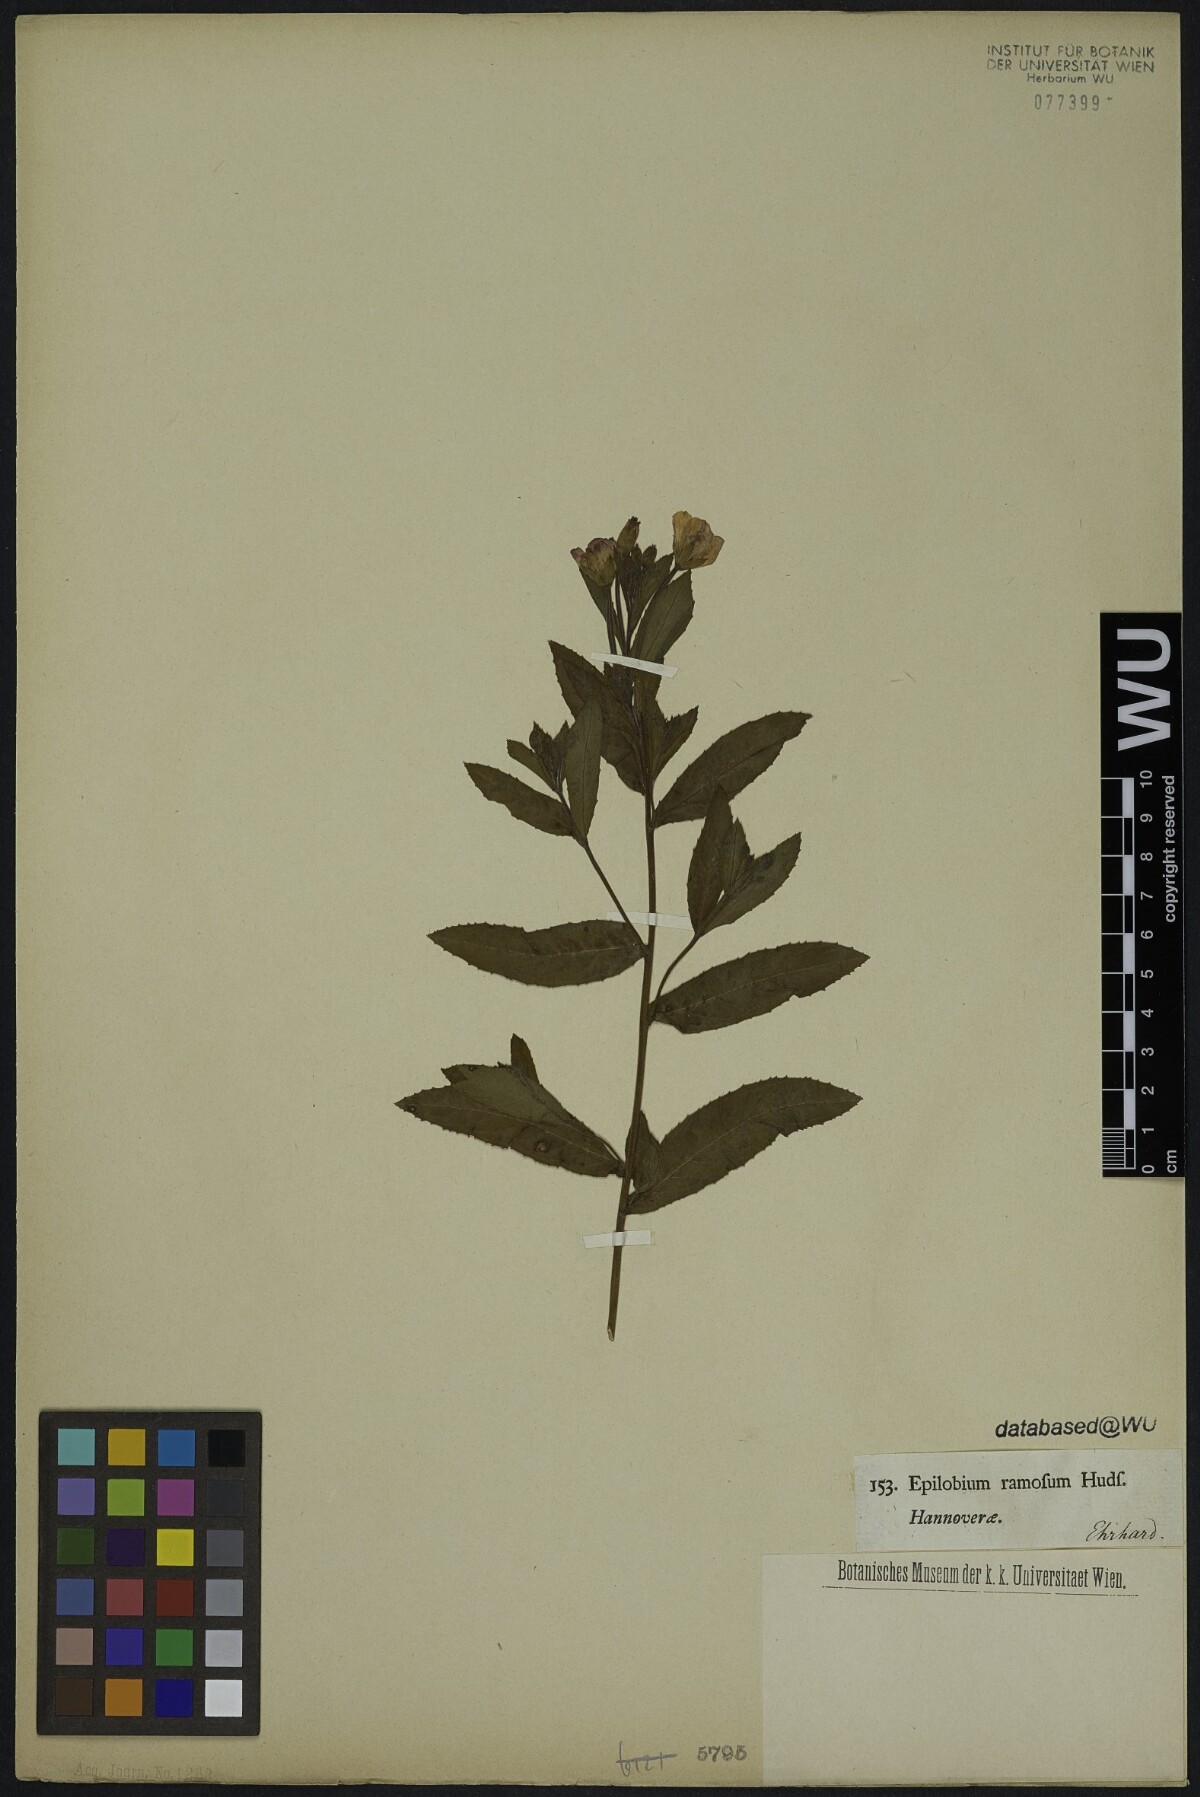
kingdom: Plantae
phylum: Tracheophyta
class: Magnoliopsida
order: Myrtales
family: Onagraceae
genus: Epilobium
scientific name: Epilobium hirsutum
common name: Great willowherb
